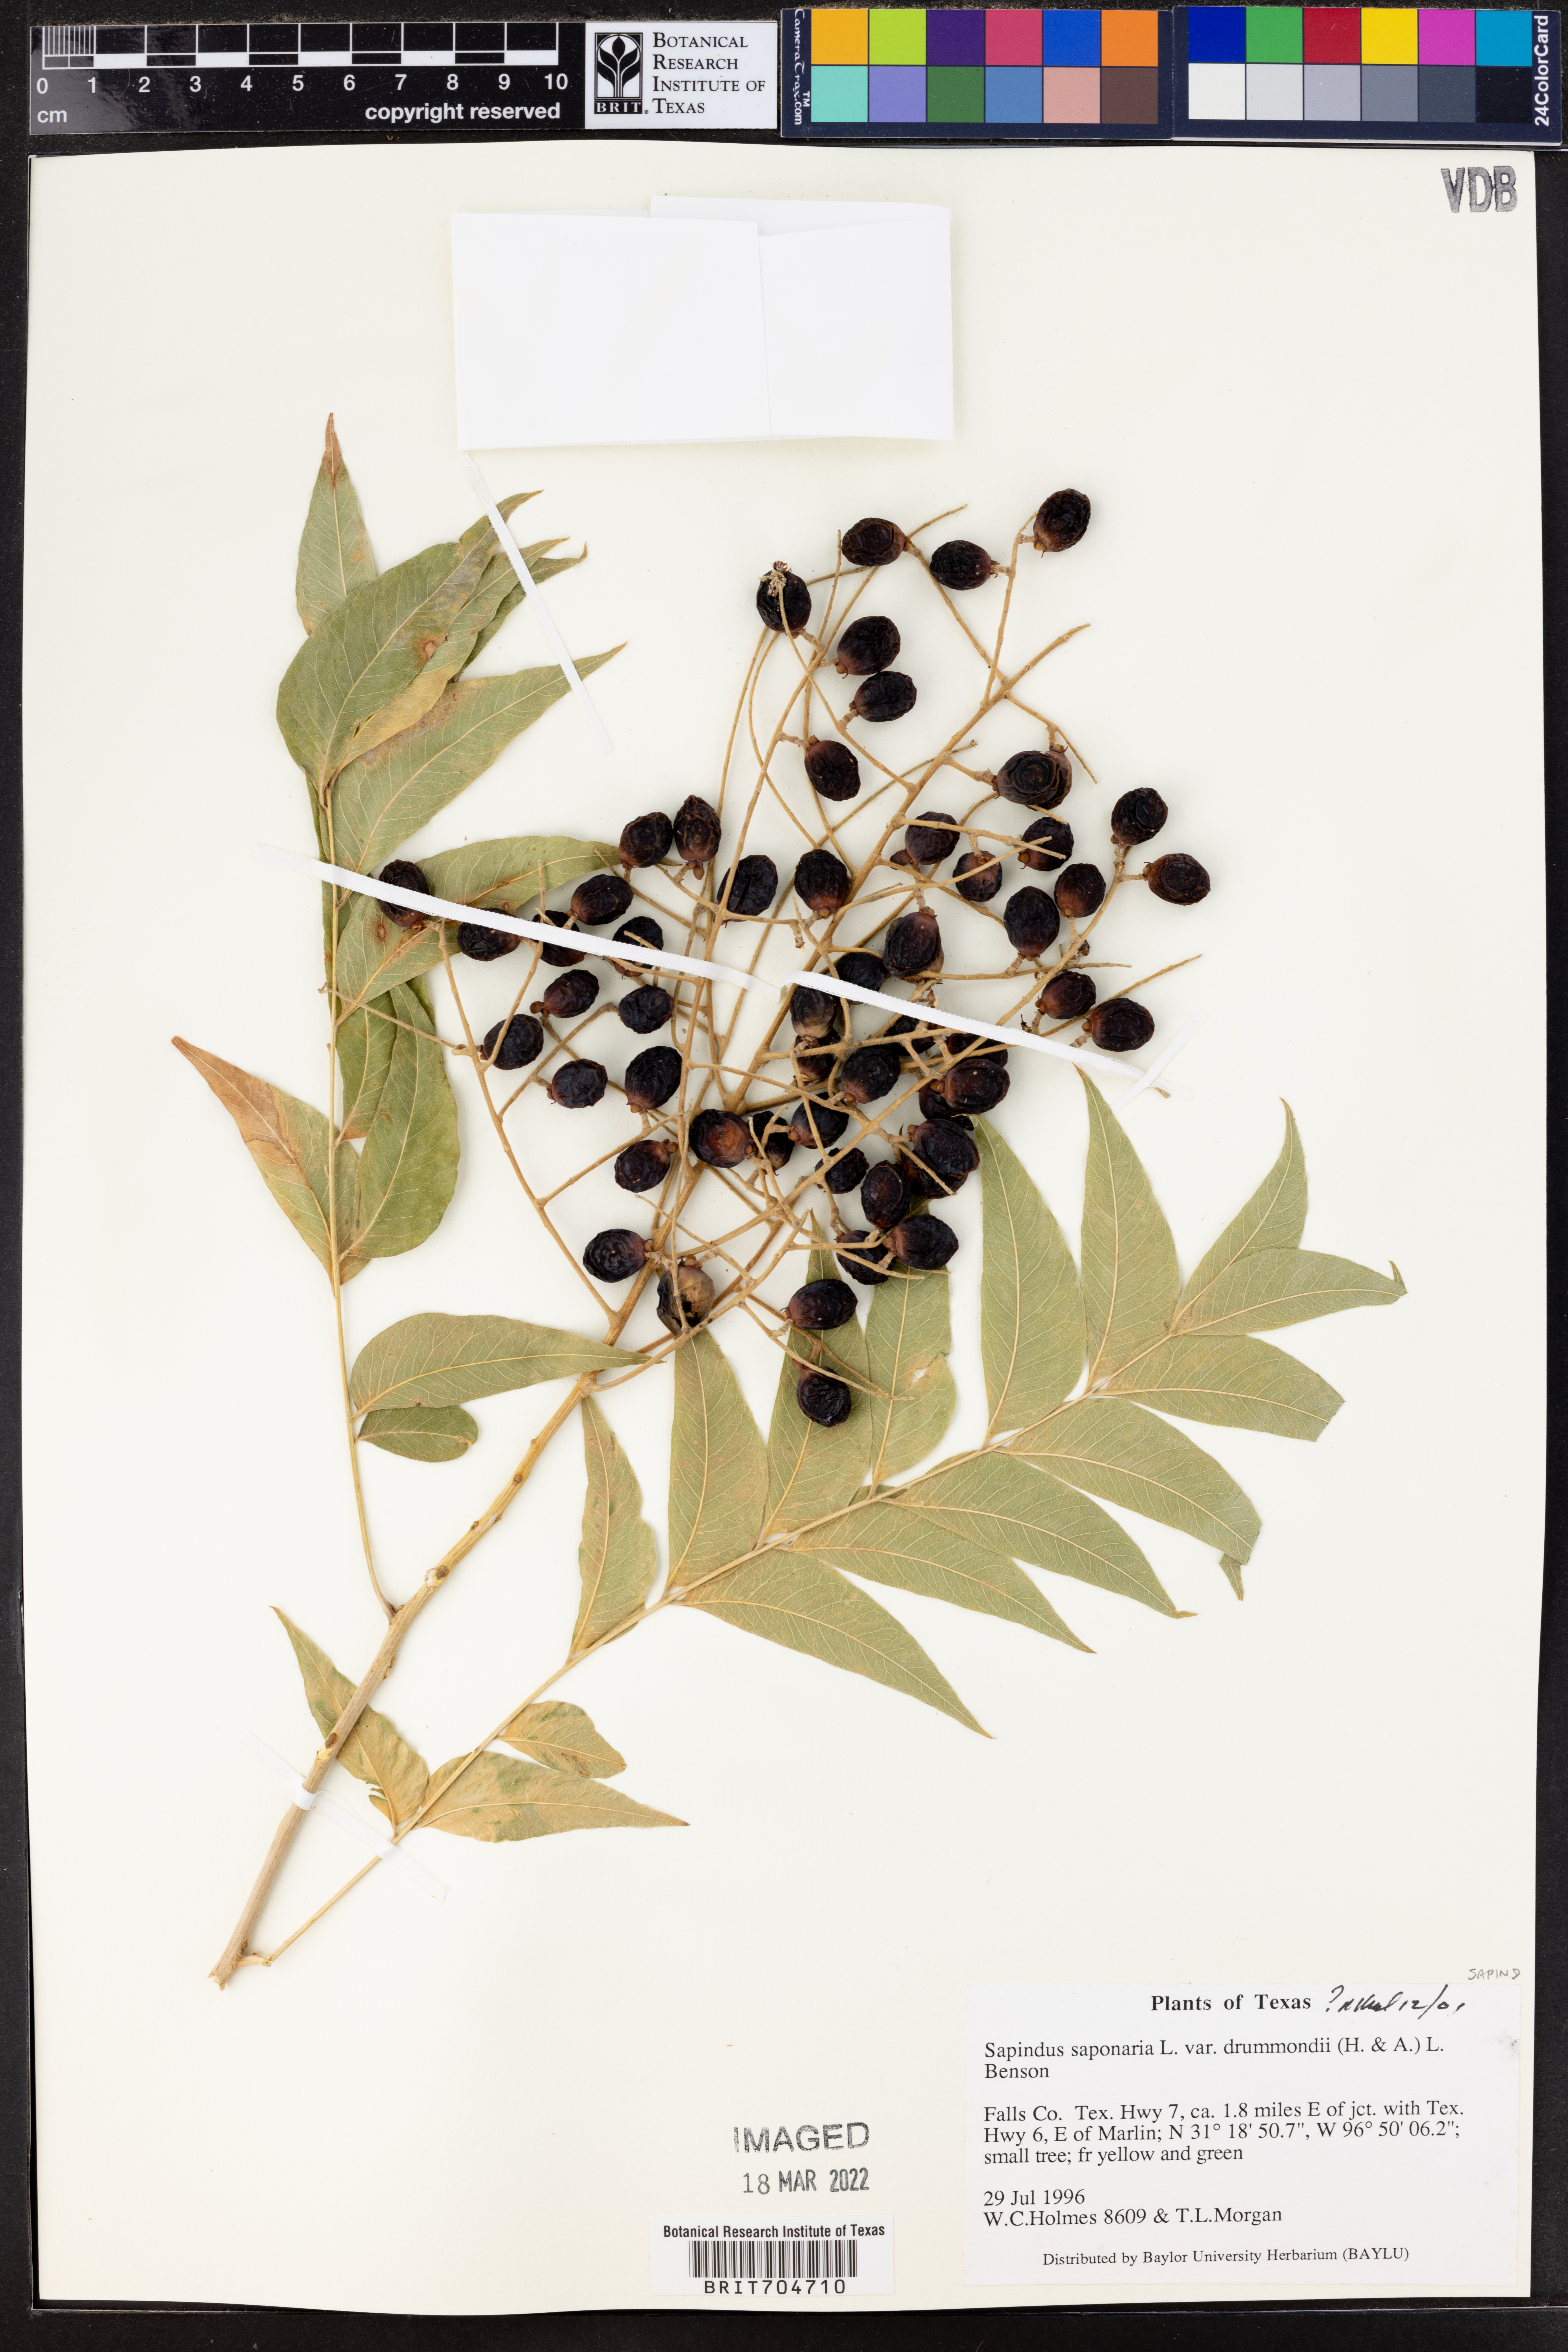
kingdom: Plantae
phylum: Tracheophyta
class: Magnoliopsida
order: Sapindales
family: Sapindaceae
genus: Sapindus
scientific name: Sapindus drummondii
